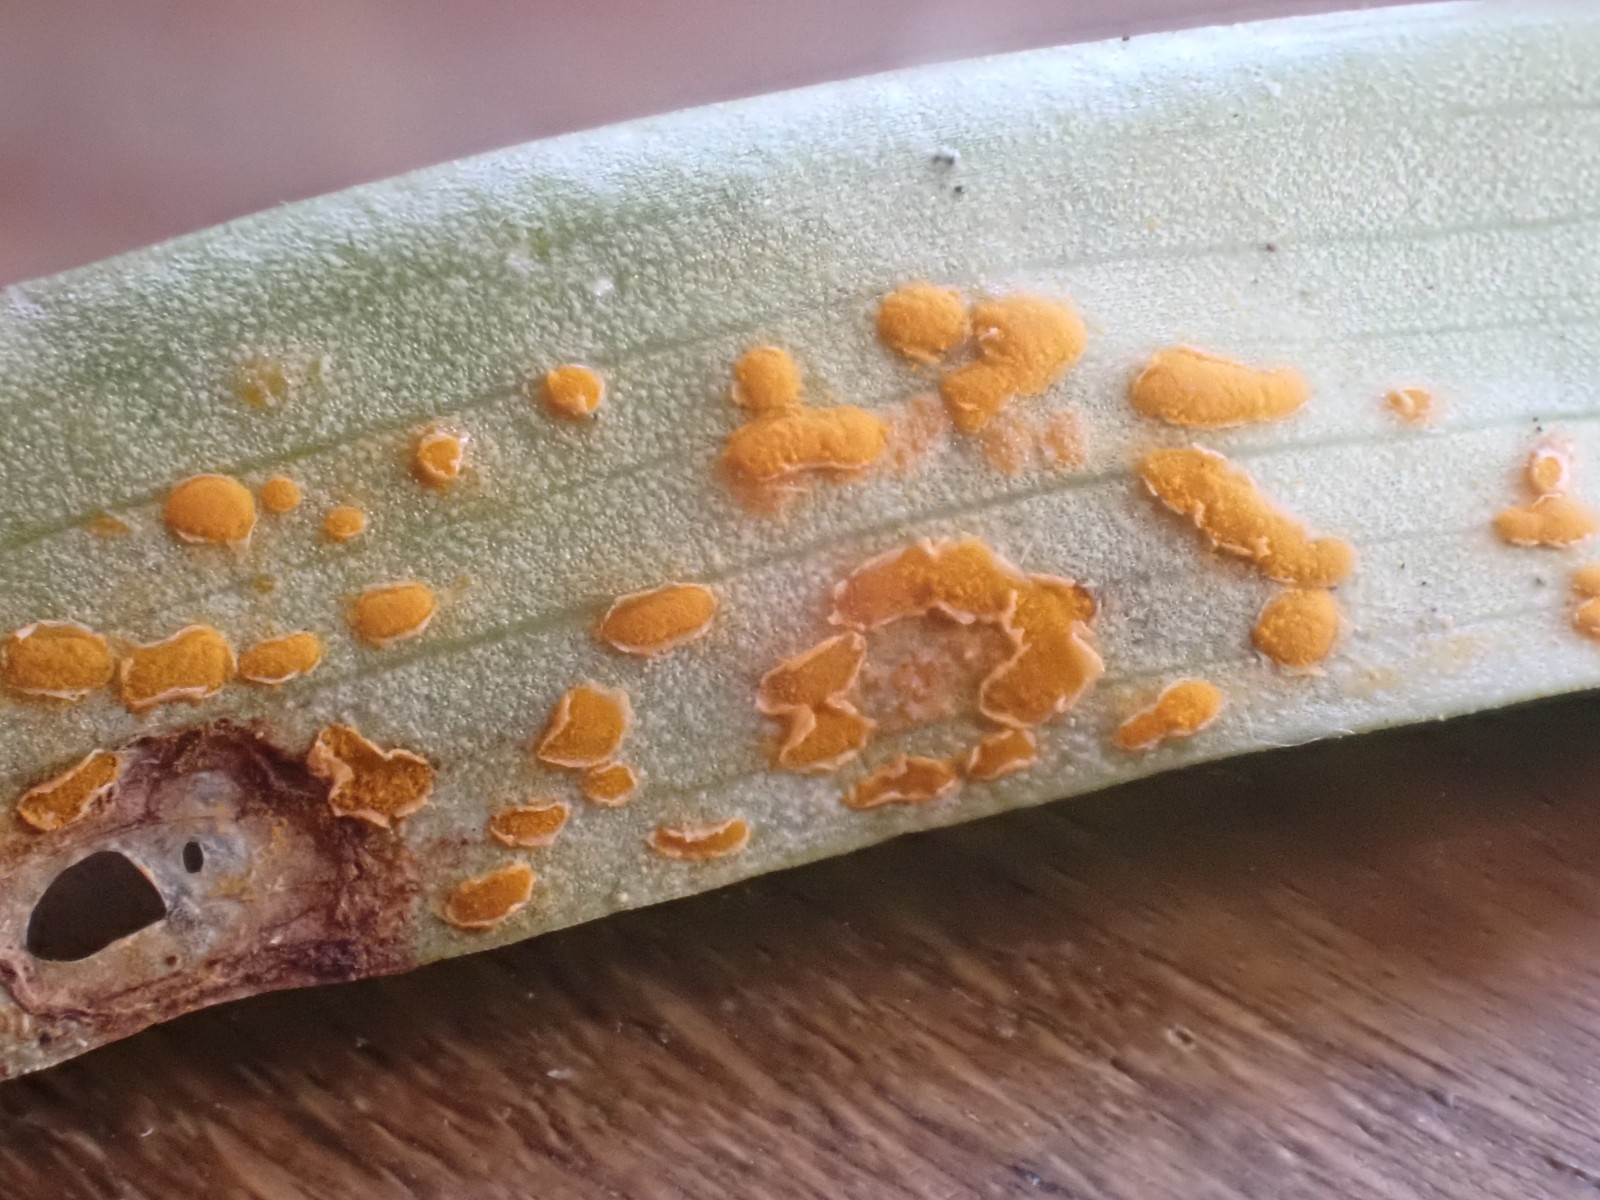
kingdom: Fungi
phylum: Basidiomycota
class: Pucciniomycetes
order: Pucciniales
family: Melampsoraceae
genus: Melampsora
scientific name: Melampsora epitea
